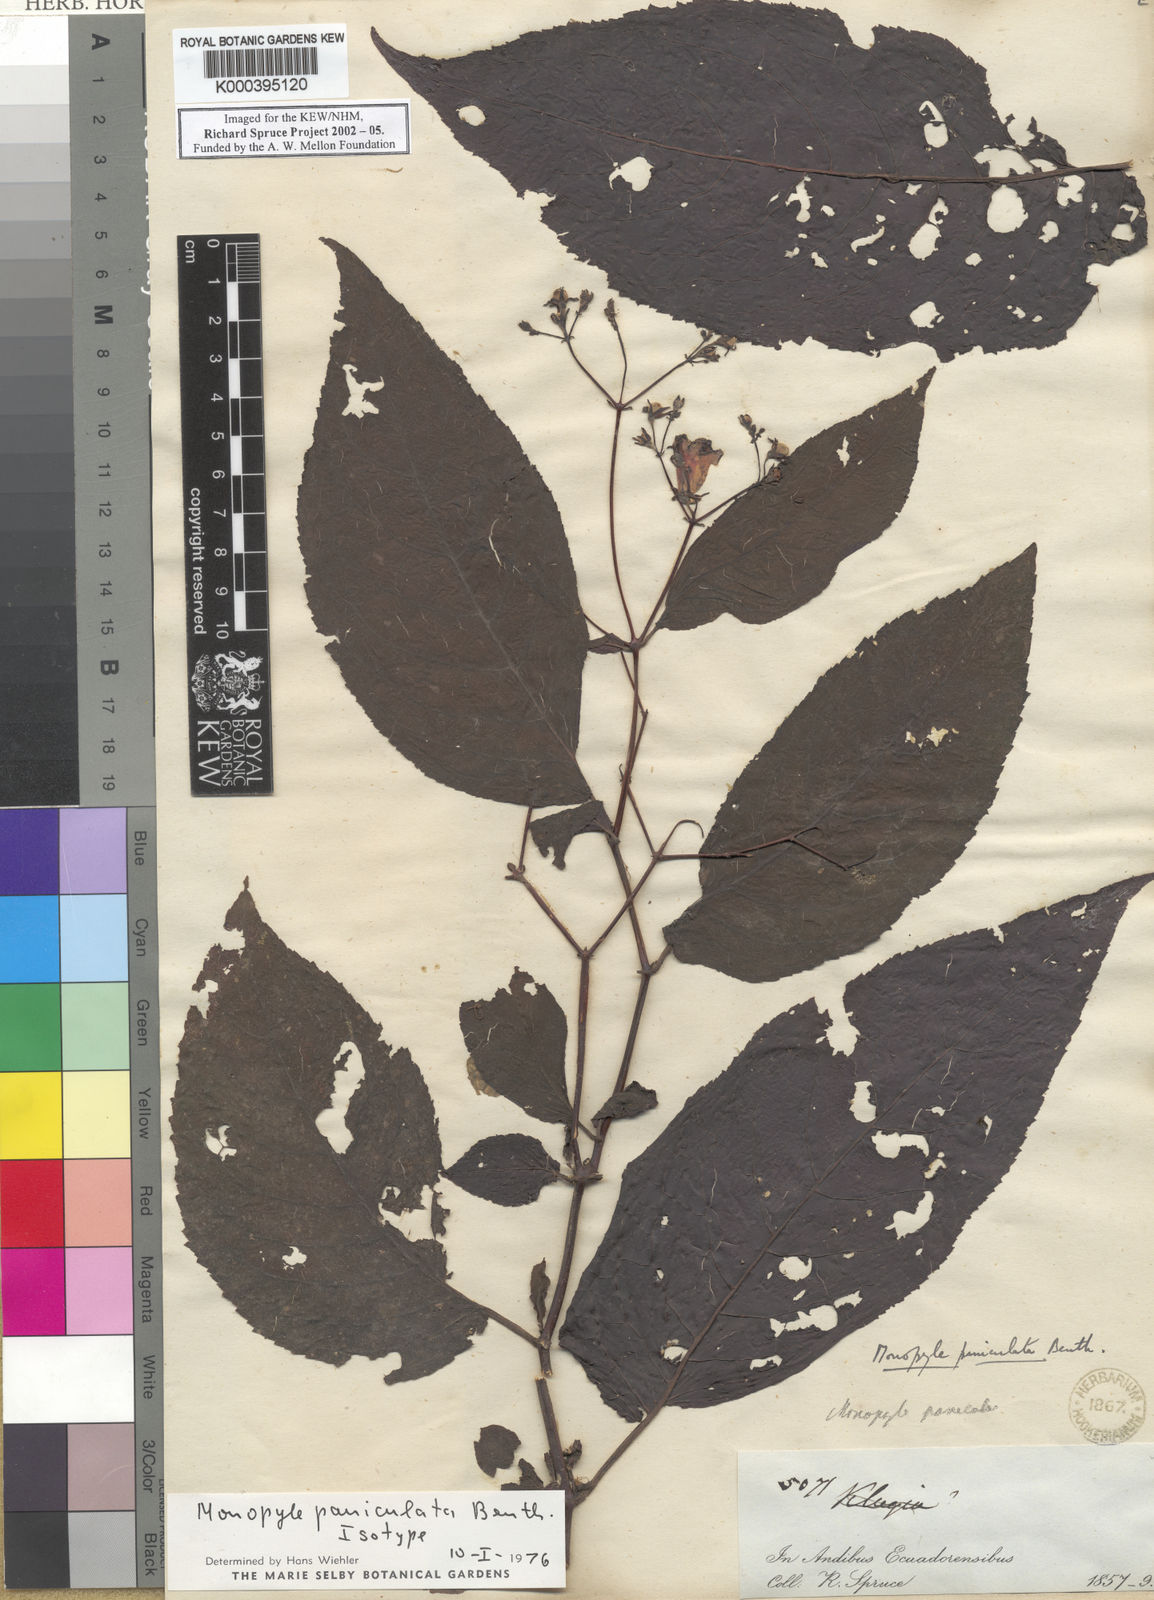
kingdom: Plantae
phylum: Tracheophyta
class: Magnoliopsida
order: Lamiales
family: Gesneriaceae
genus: Monopyle
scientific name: Monopyle paniculata
